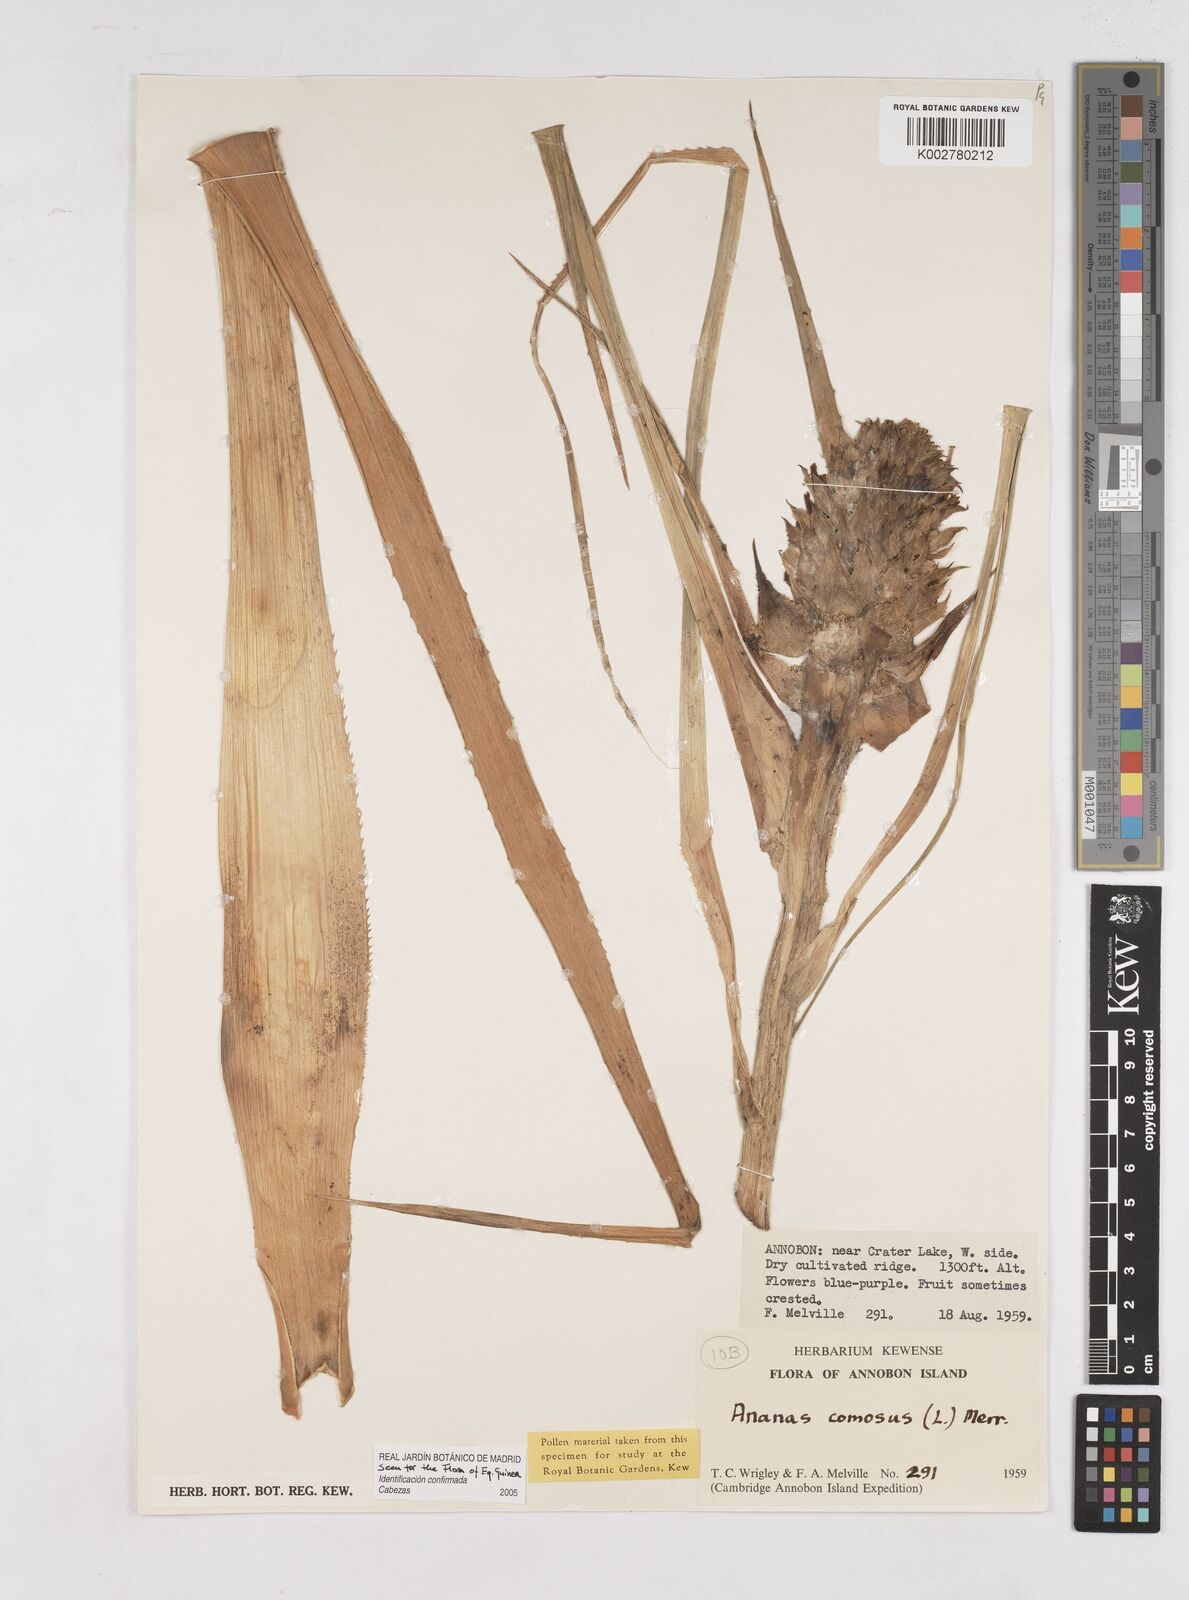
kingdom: Plantae
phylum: Tracheophyta
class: Liliopsida
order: Poales
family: Bromeliaceae
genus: Ananas
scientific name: Ananas comosus
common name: Pineapple
